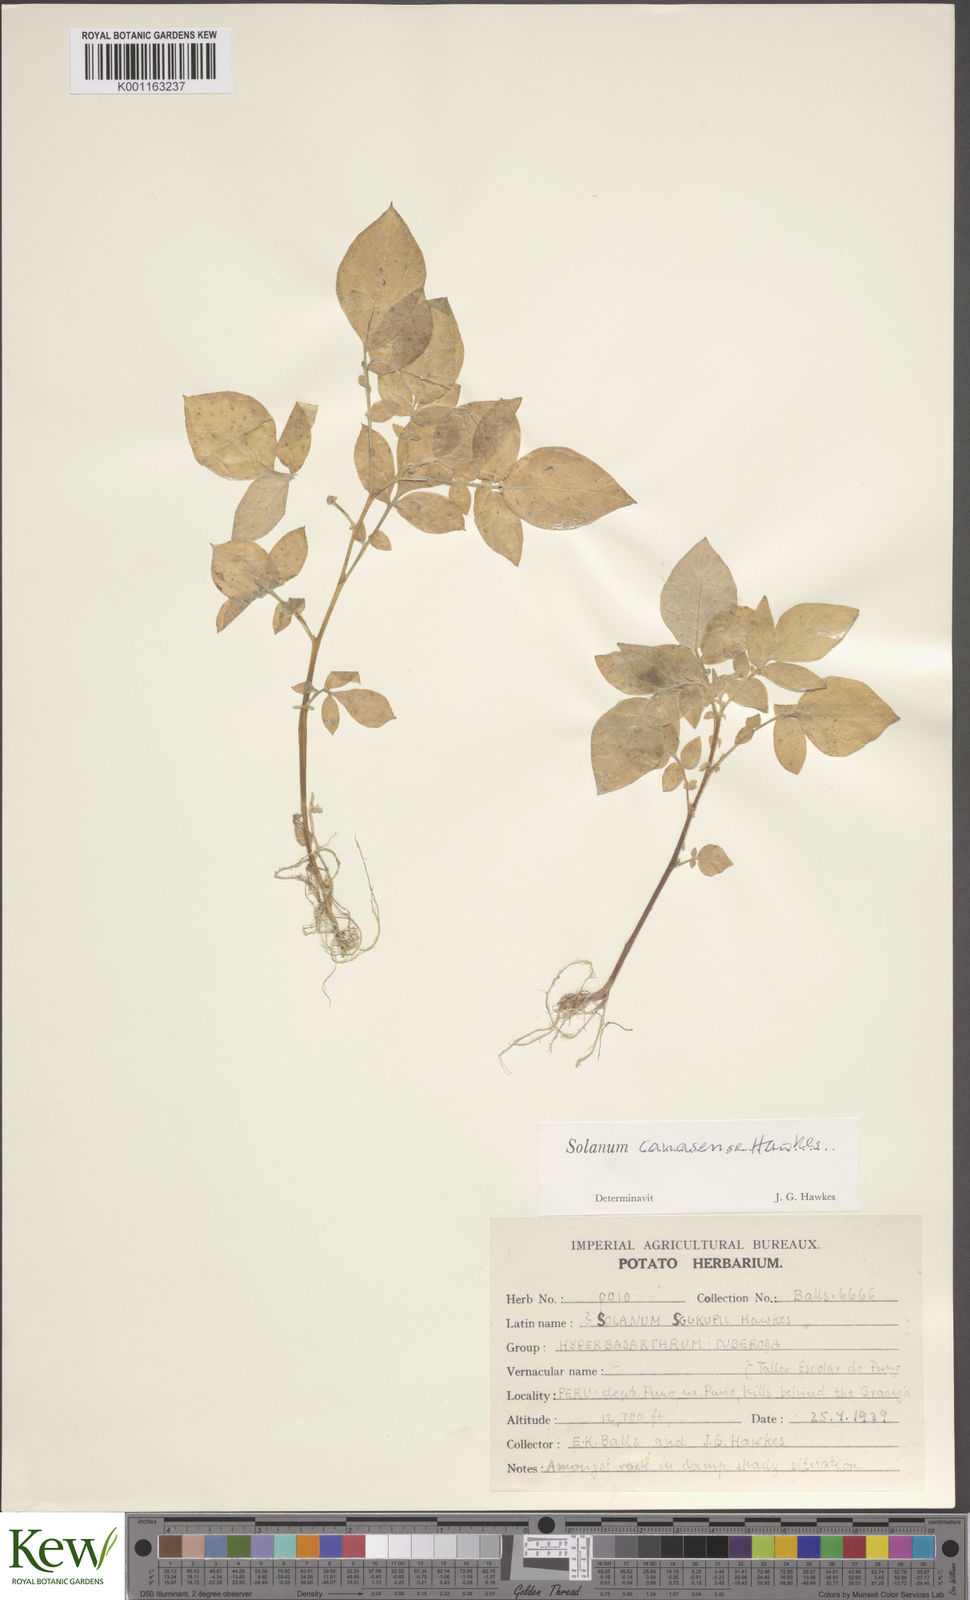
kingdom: Plantae
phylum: Tracheophyta
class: Magnoliopsida
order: Solanales
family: Solanaceae
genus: Solanum
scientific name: Solanum candolleanum
